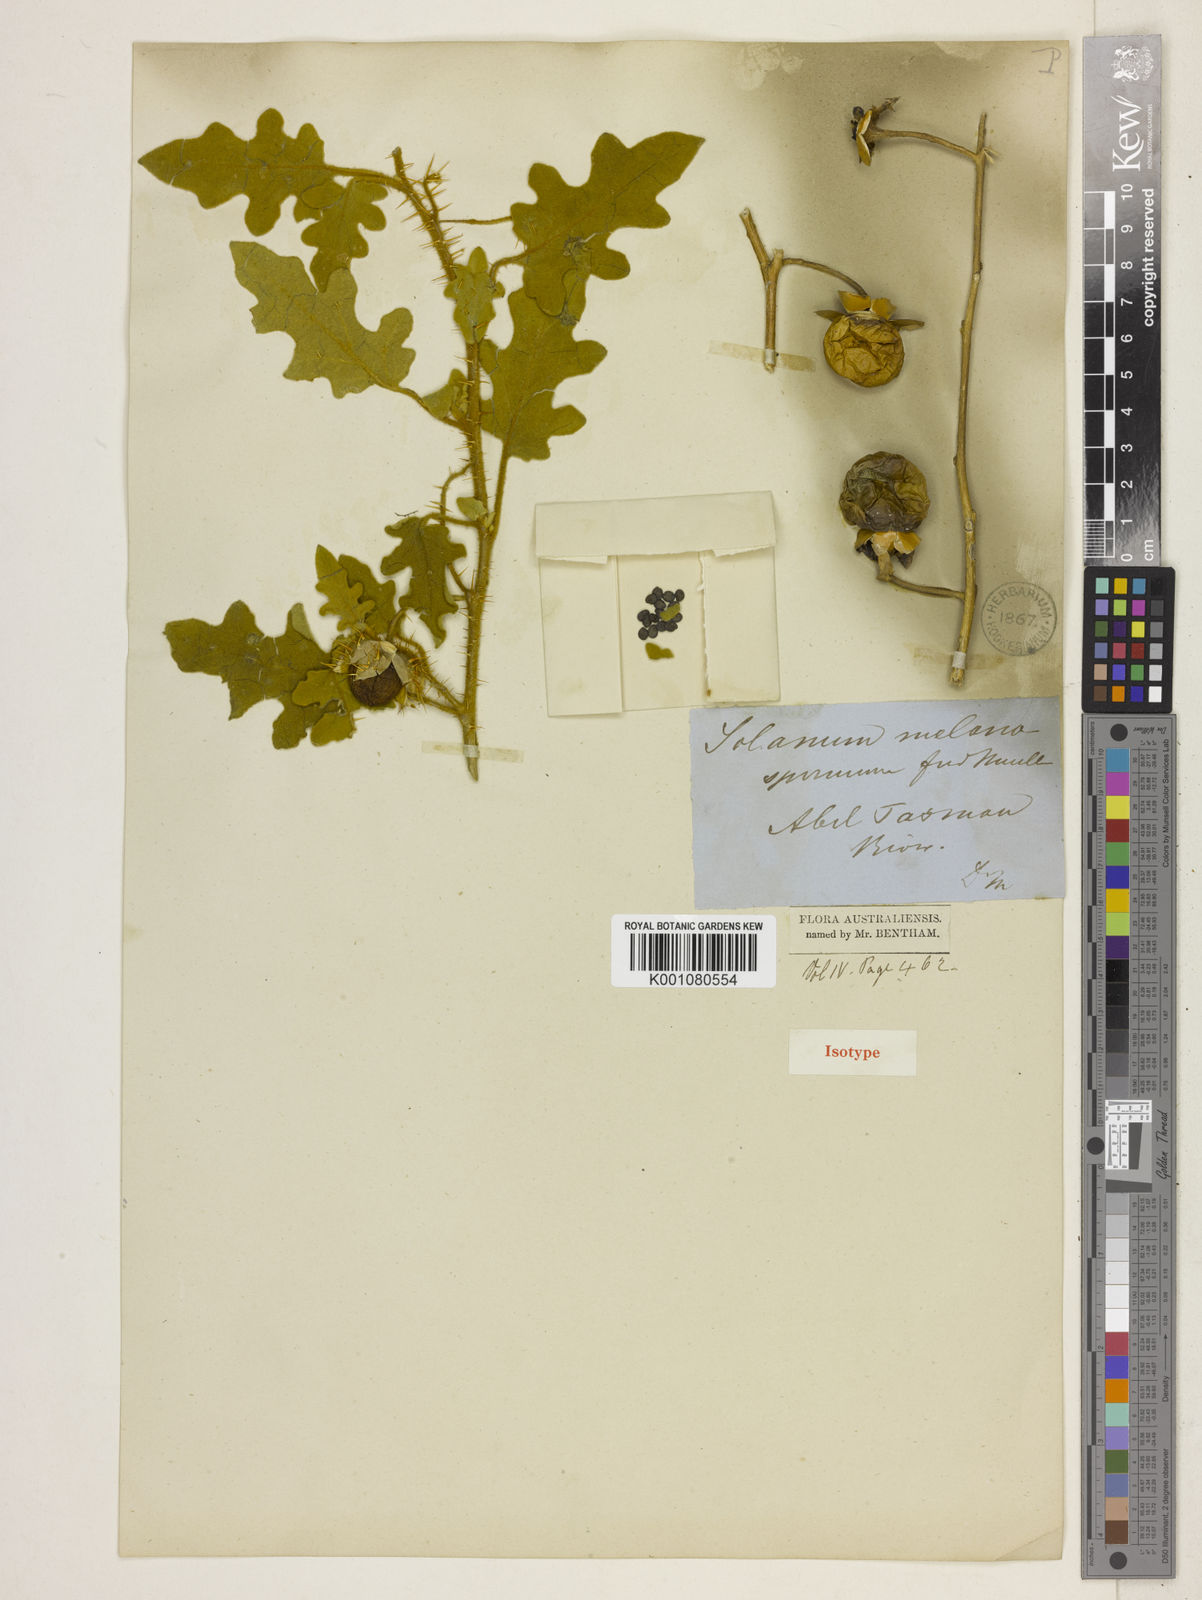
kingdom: Plantae
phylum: Tracheophyta
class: Magnoliopsida
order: Solanales
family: Solanaceae
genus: Solanum
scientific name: Solanum melanospermum
